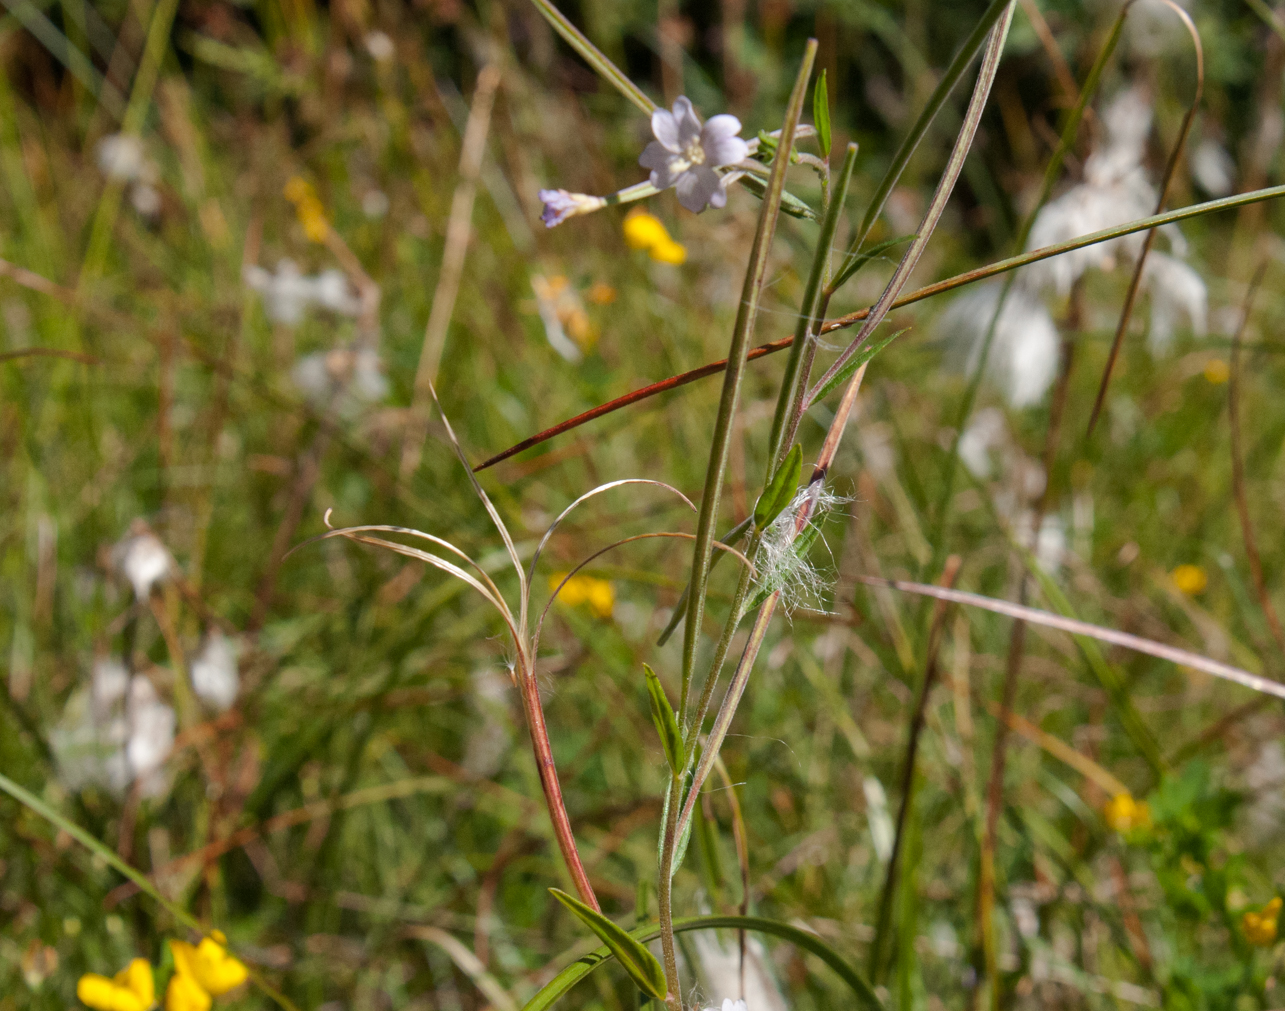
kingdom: Plantae
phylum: Tracheophyta
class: Magnoliopsida
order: Myrtales
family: Onagraceae
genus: Epilobium
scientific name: Epilobium palustre
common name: Marsh willowherb
